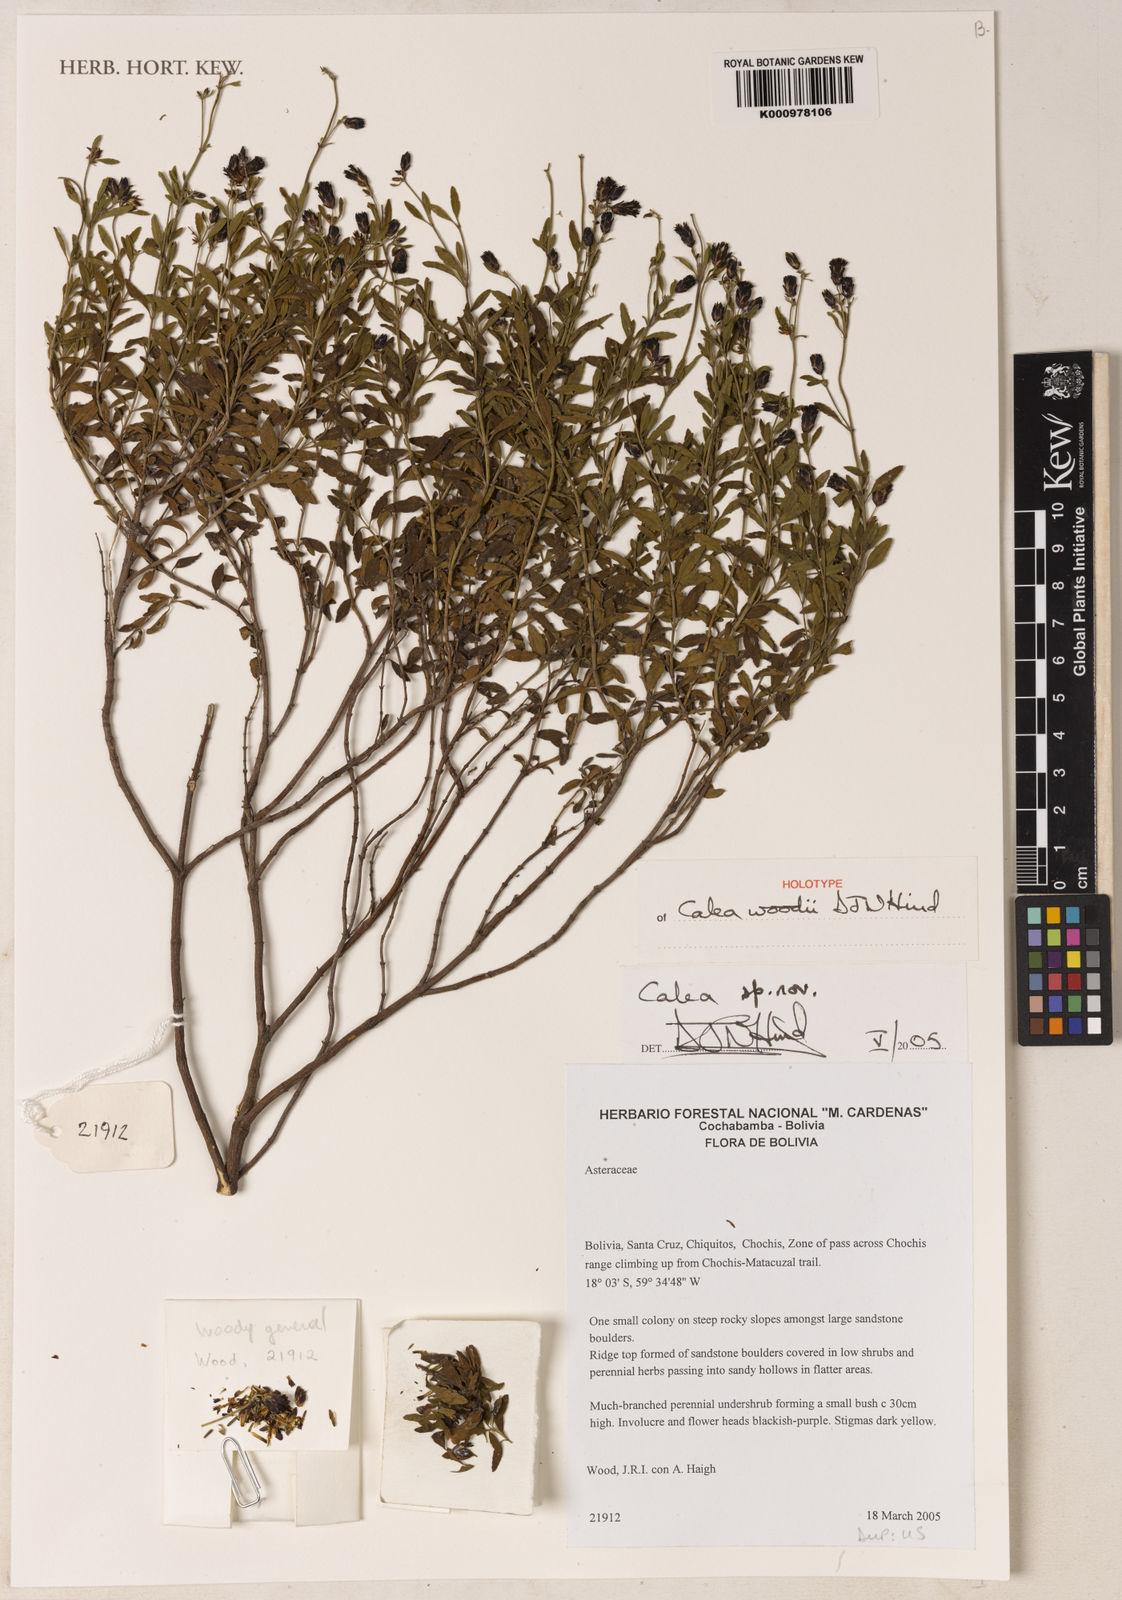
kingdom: Plantae
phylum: Tracheophyta
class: Magnoliopsida
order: Asterales
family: Asteraceae
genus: Calea
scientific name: Calea dalyi
